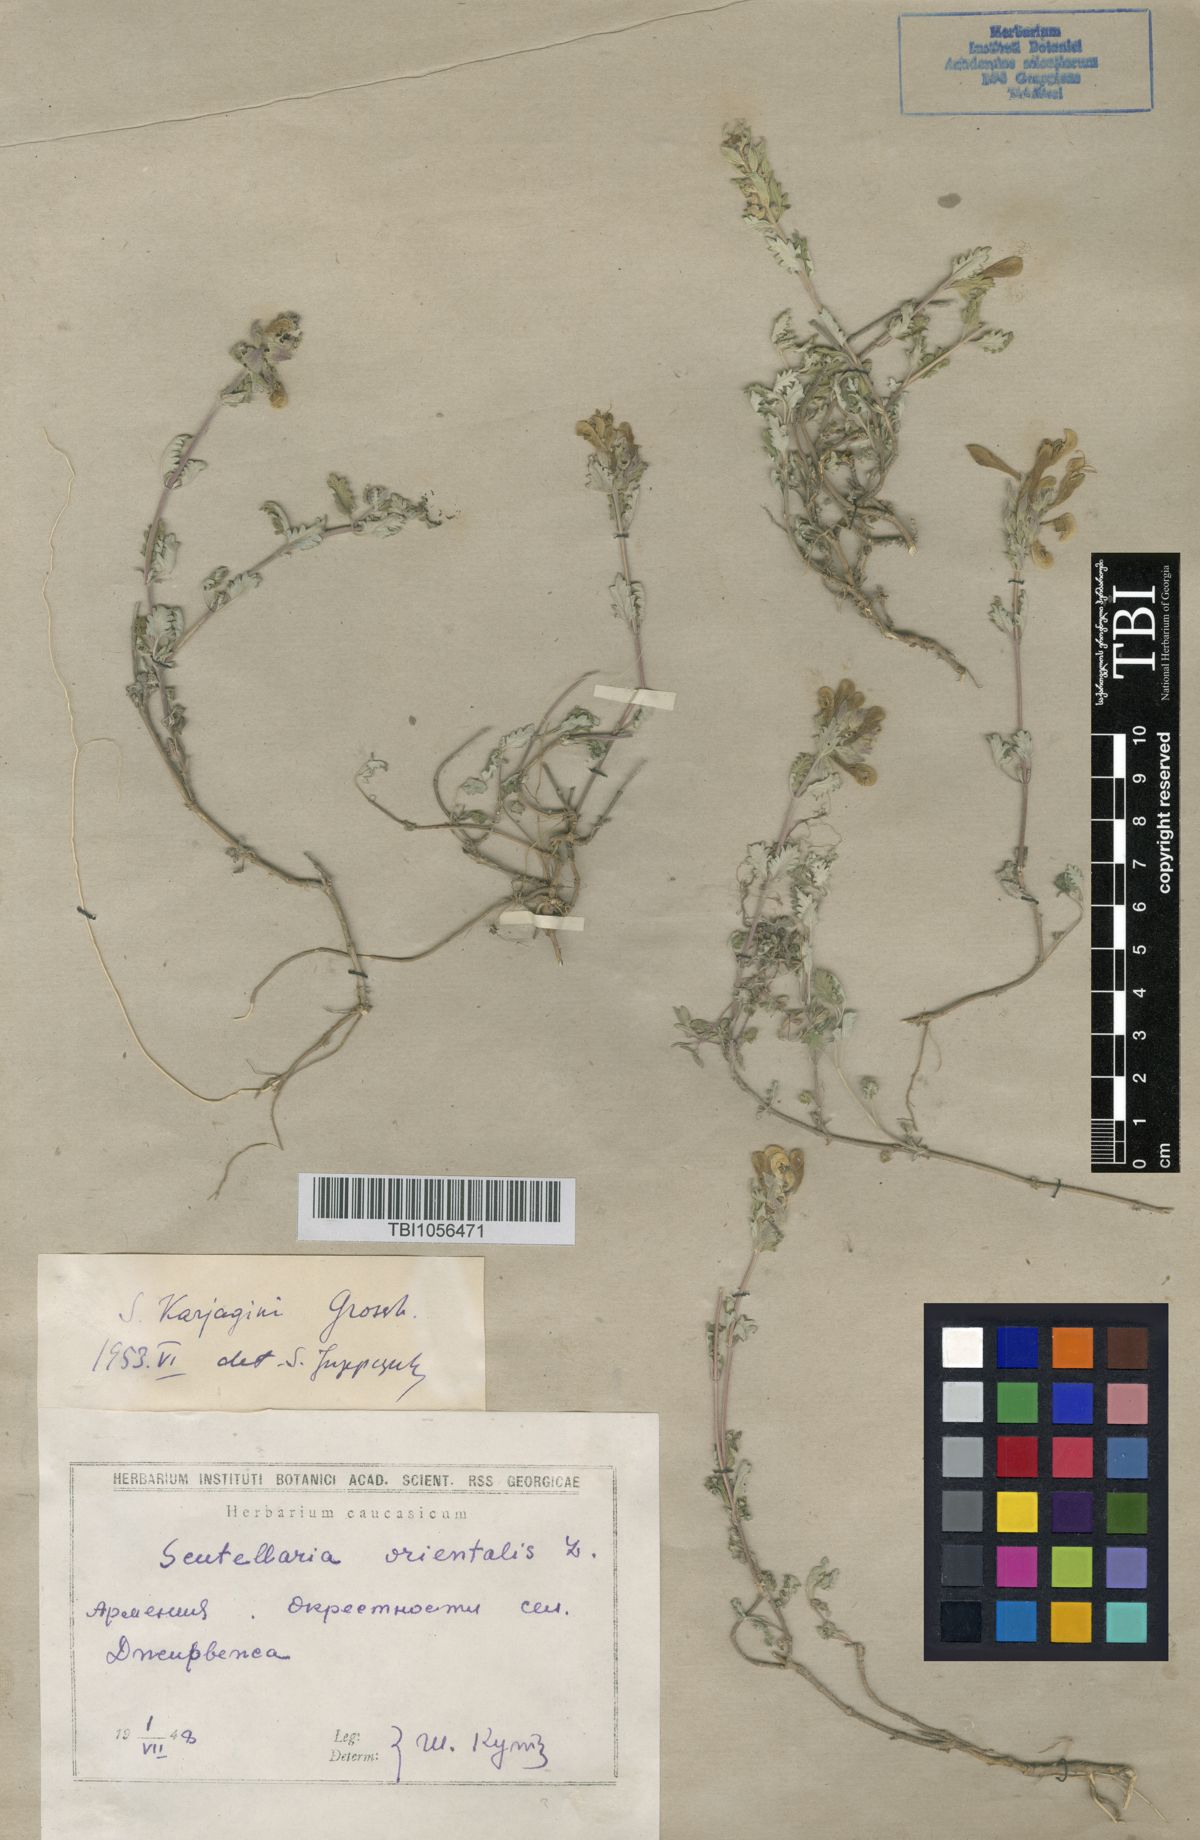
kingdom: Plantae
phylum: Tracheophyta
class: Magnoliopsida
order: Lamiales
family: Lamiaceae
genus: Scutellaria
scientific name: Scutellaria karjaginii
